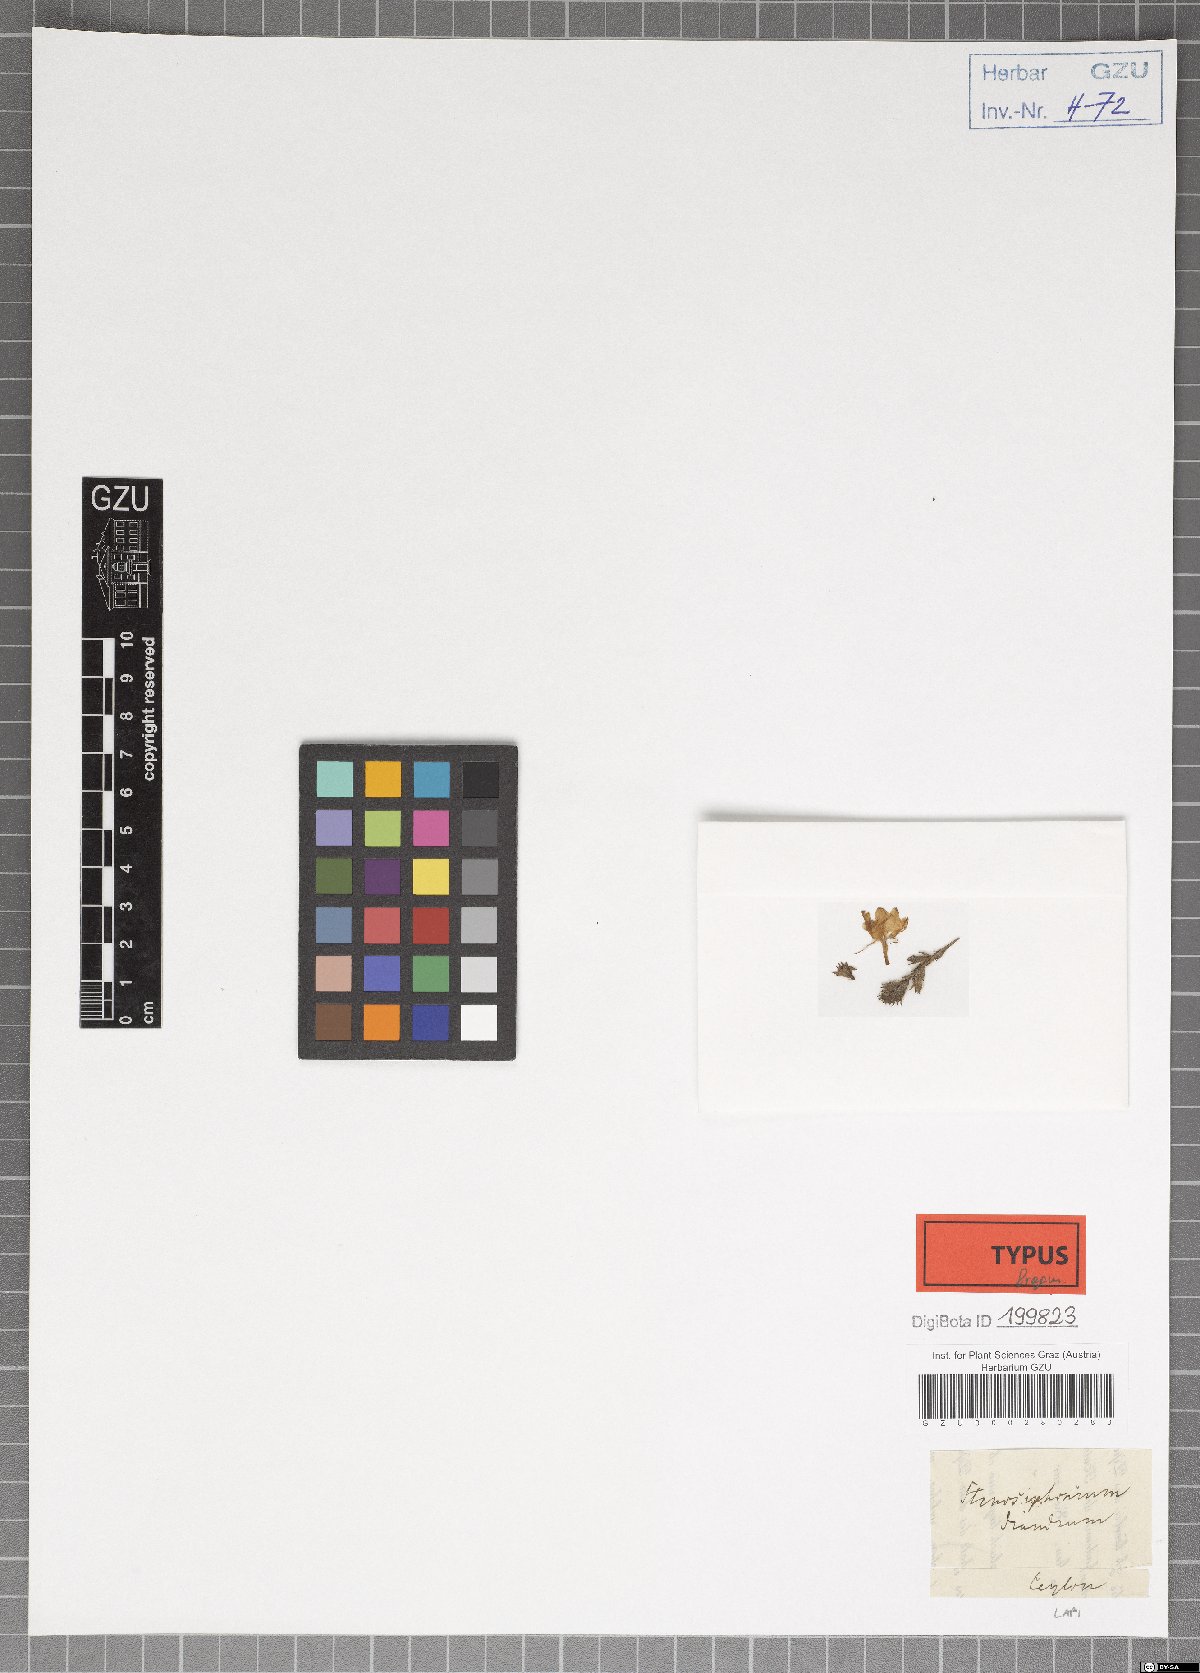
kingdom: Plantae
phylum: Tracheophyta
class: Magnoliopsida
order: Lamiales
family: Acanthaceae
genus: Strobilanthes
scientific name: Strobilanthes diandra
